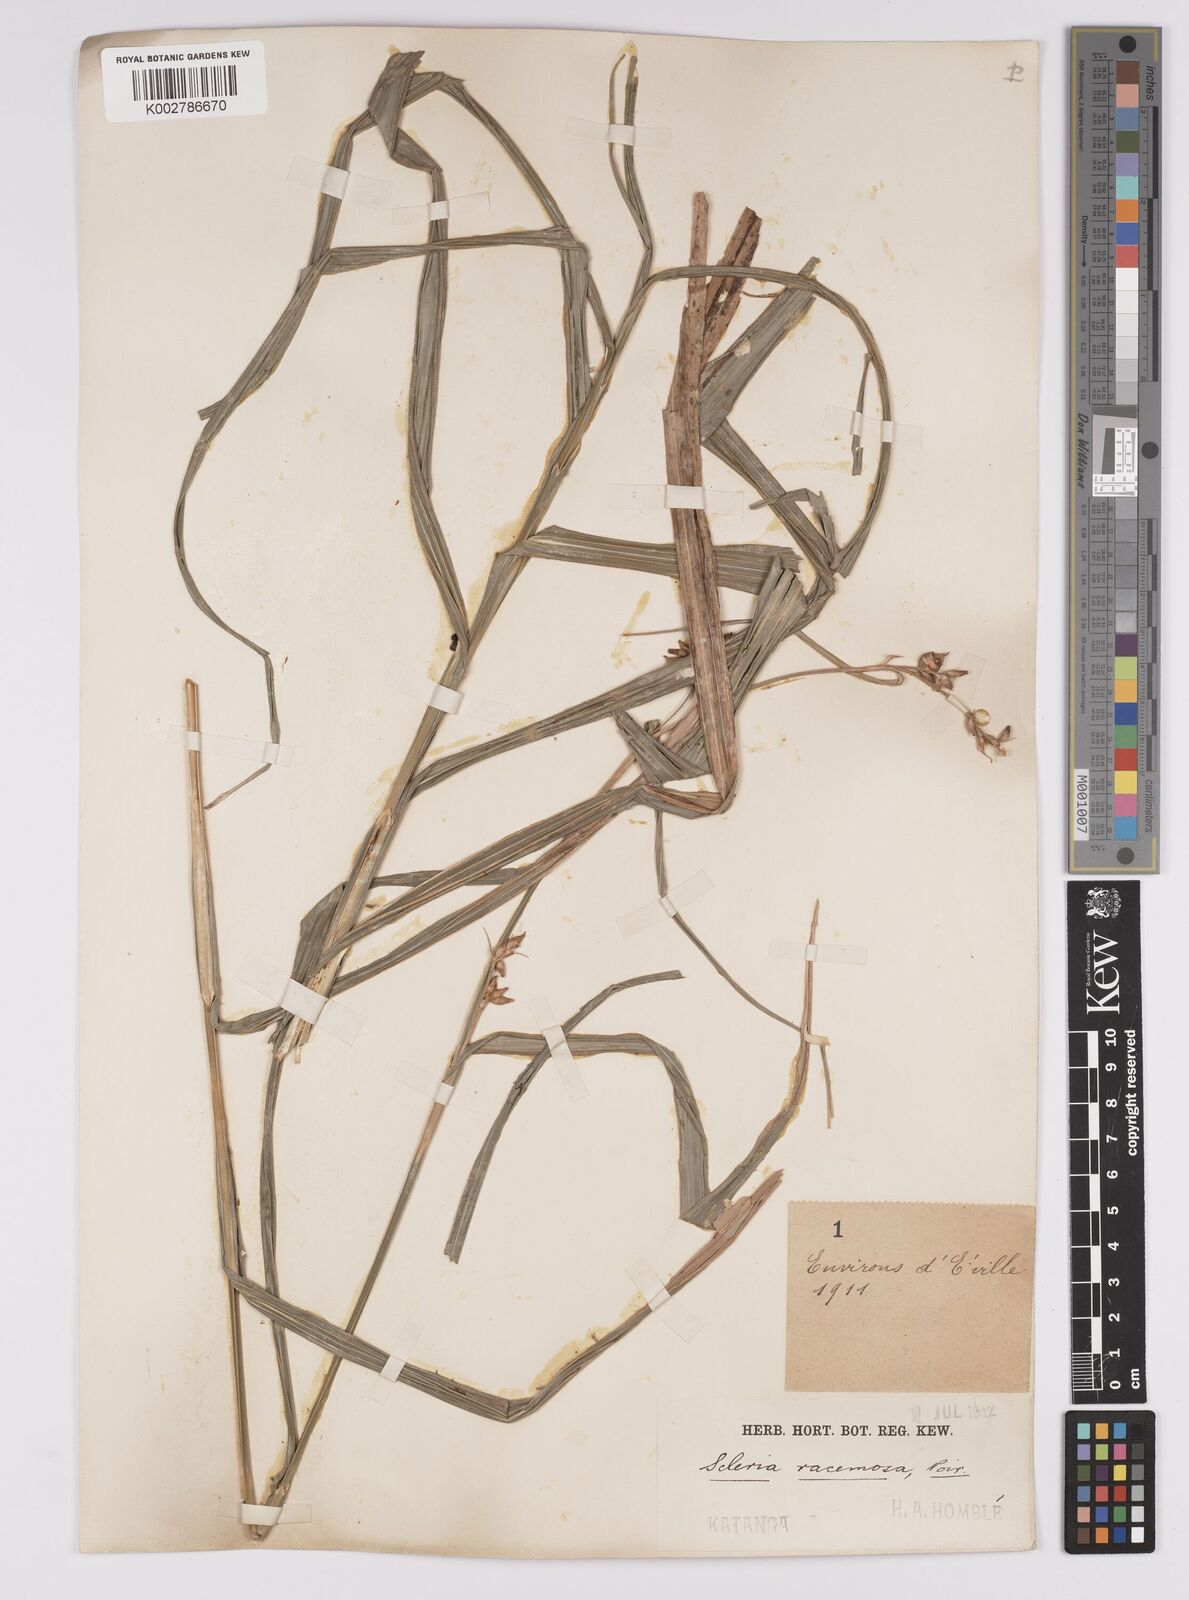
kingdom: Plantae
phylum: Tracheophyta
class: Liliopsida
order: Poales
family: Cyperaceae
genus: Scleria
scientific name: Scleria racemosa
